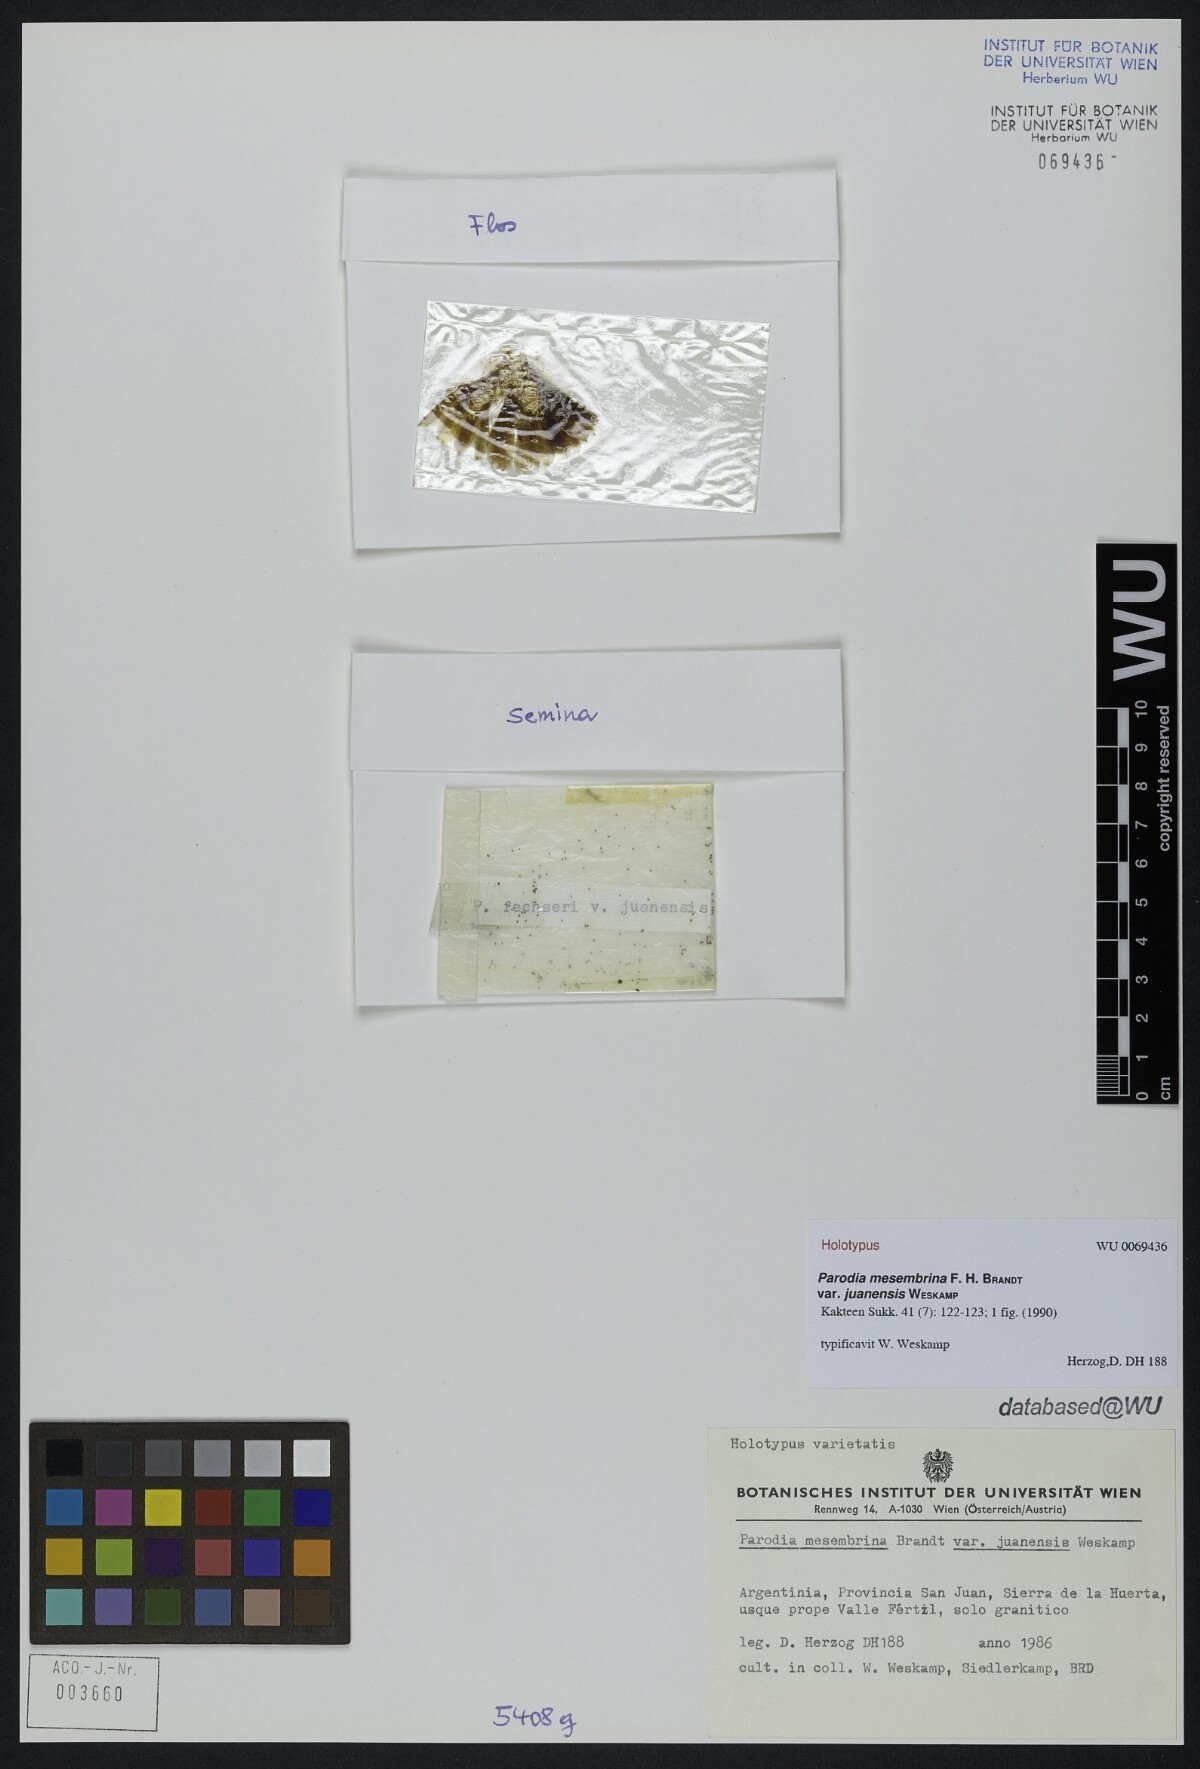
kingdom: Plantae
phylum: Tracheophyta
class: Magnoliopsida
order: Caryophyllales
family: Cactaceae
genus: Parodia
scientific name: Parodia microsperma
